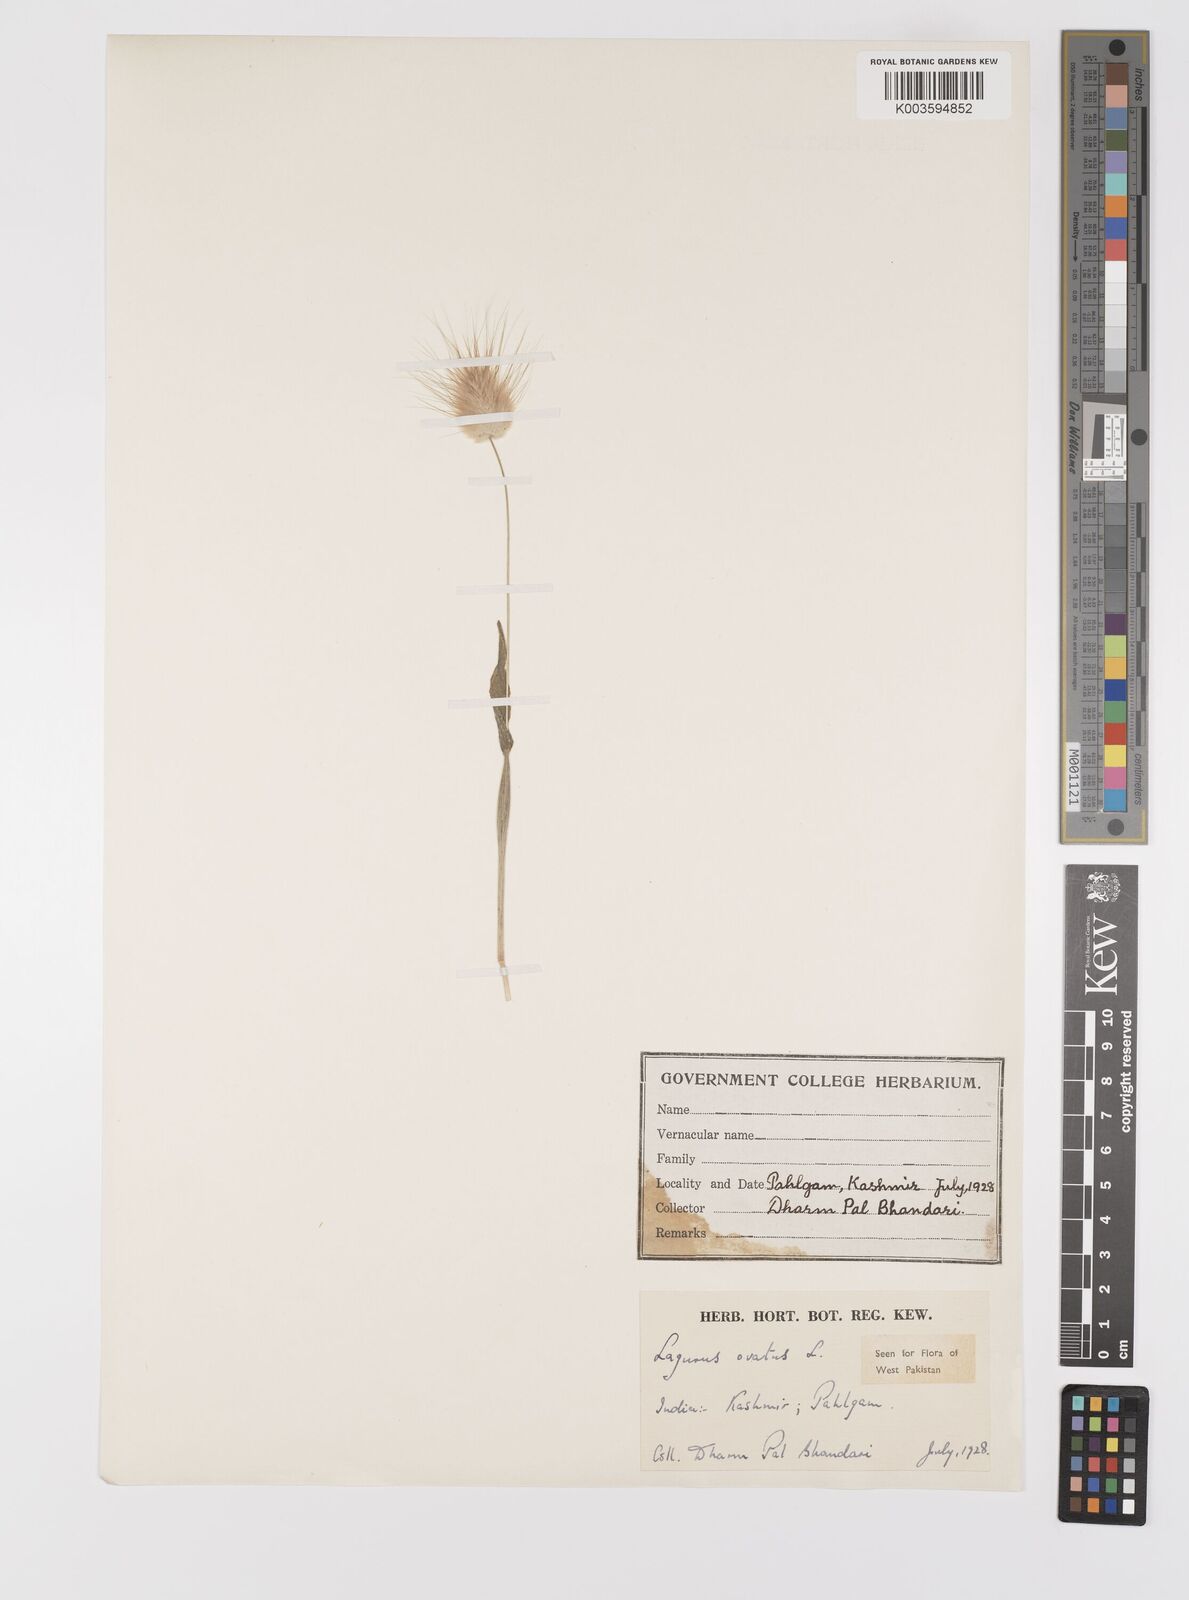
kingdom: Plantae
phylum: Tracheophyta
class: Liliopsida
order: Poales
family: Poaceae
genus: Lagurus
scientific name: Lagurus ovatus
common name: Hare's-tail
